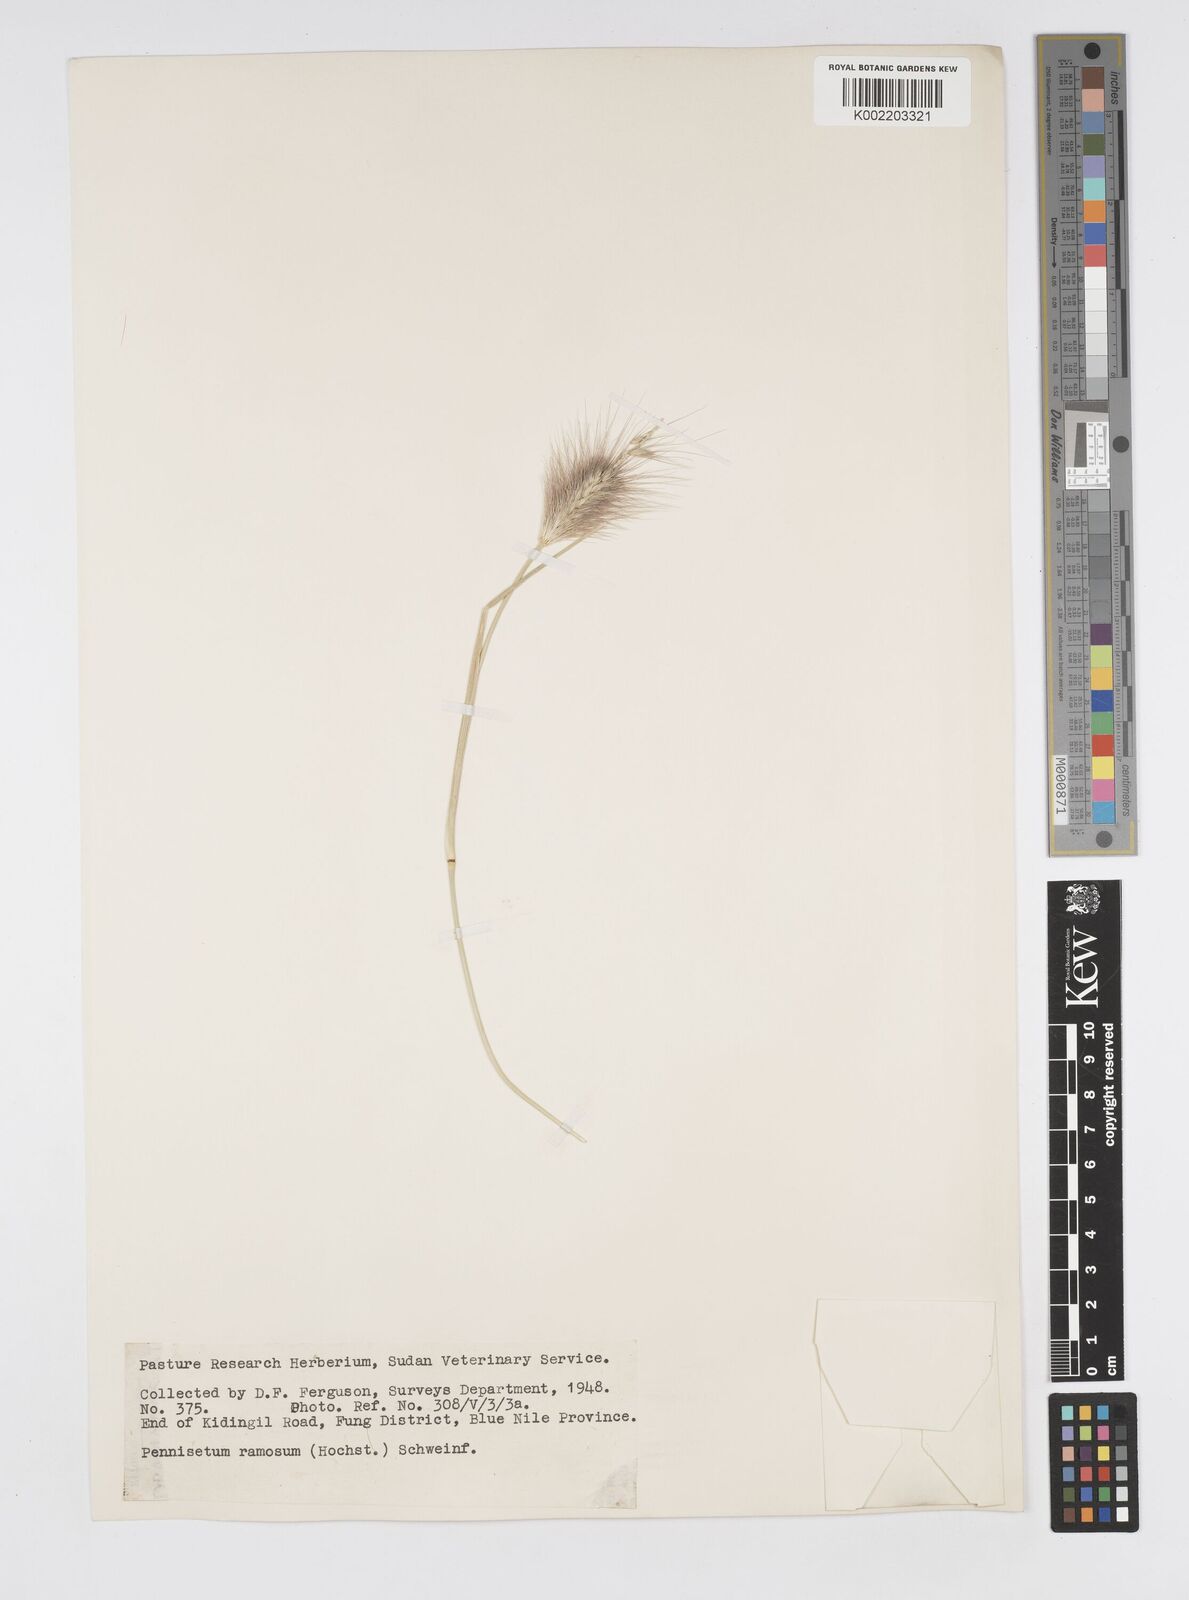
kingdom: Plantae
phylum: Tracheophyta
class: Liliopsida
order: Poales
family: Poaceae
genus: Cenchrus
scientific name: Cenchrus ramosus
